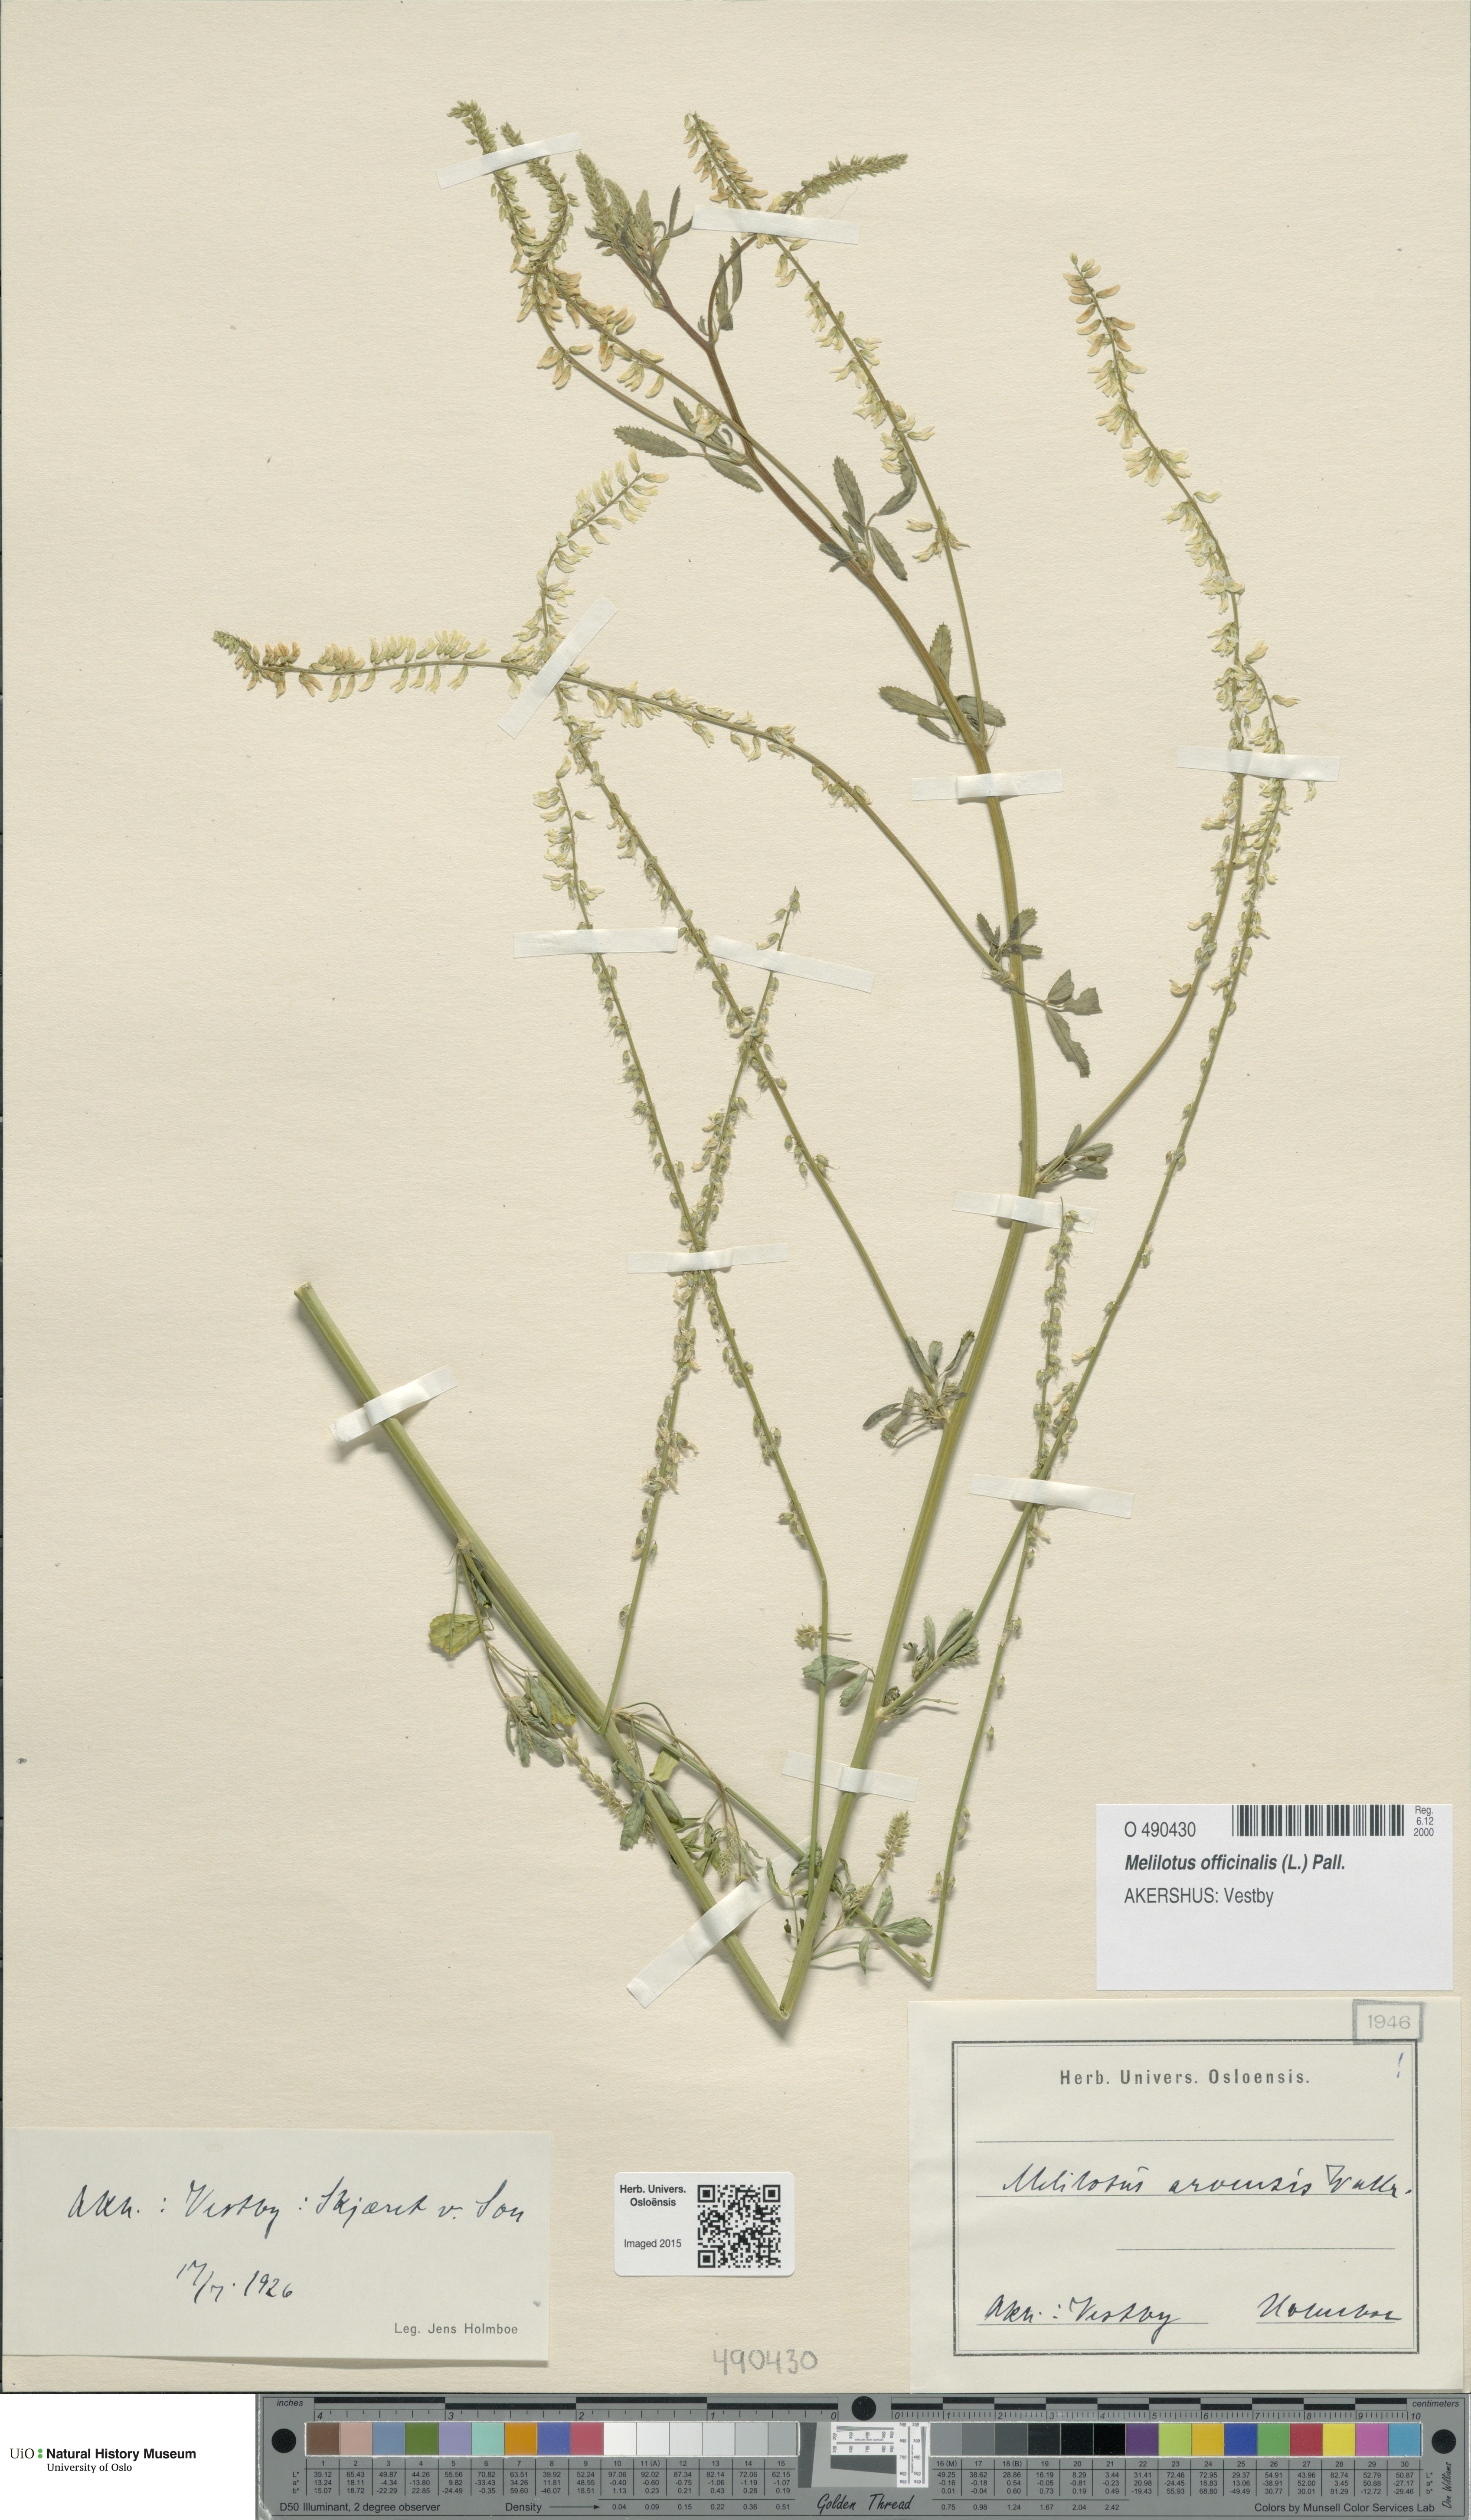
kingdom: Plantae
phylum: Tracheophyta
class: Magnoliopsida
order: Fabales
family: Fabaceae
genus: Melilotus
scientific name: Melilotus officinalis
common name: Sweetclover
